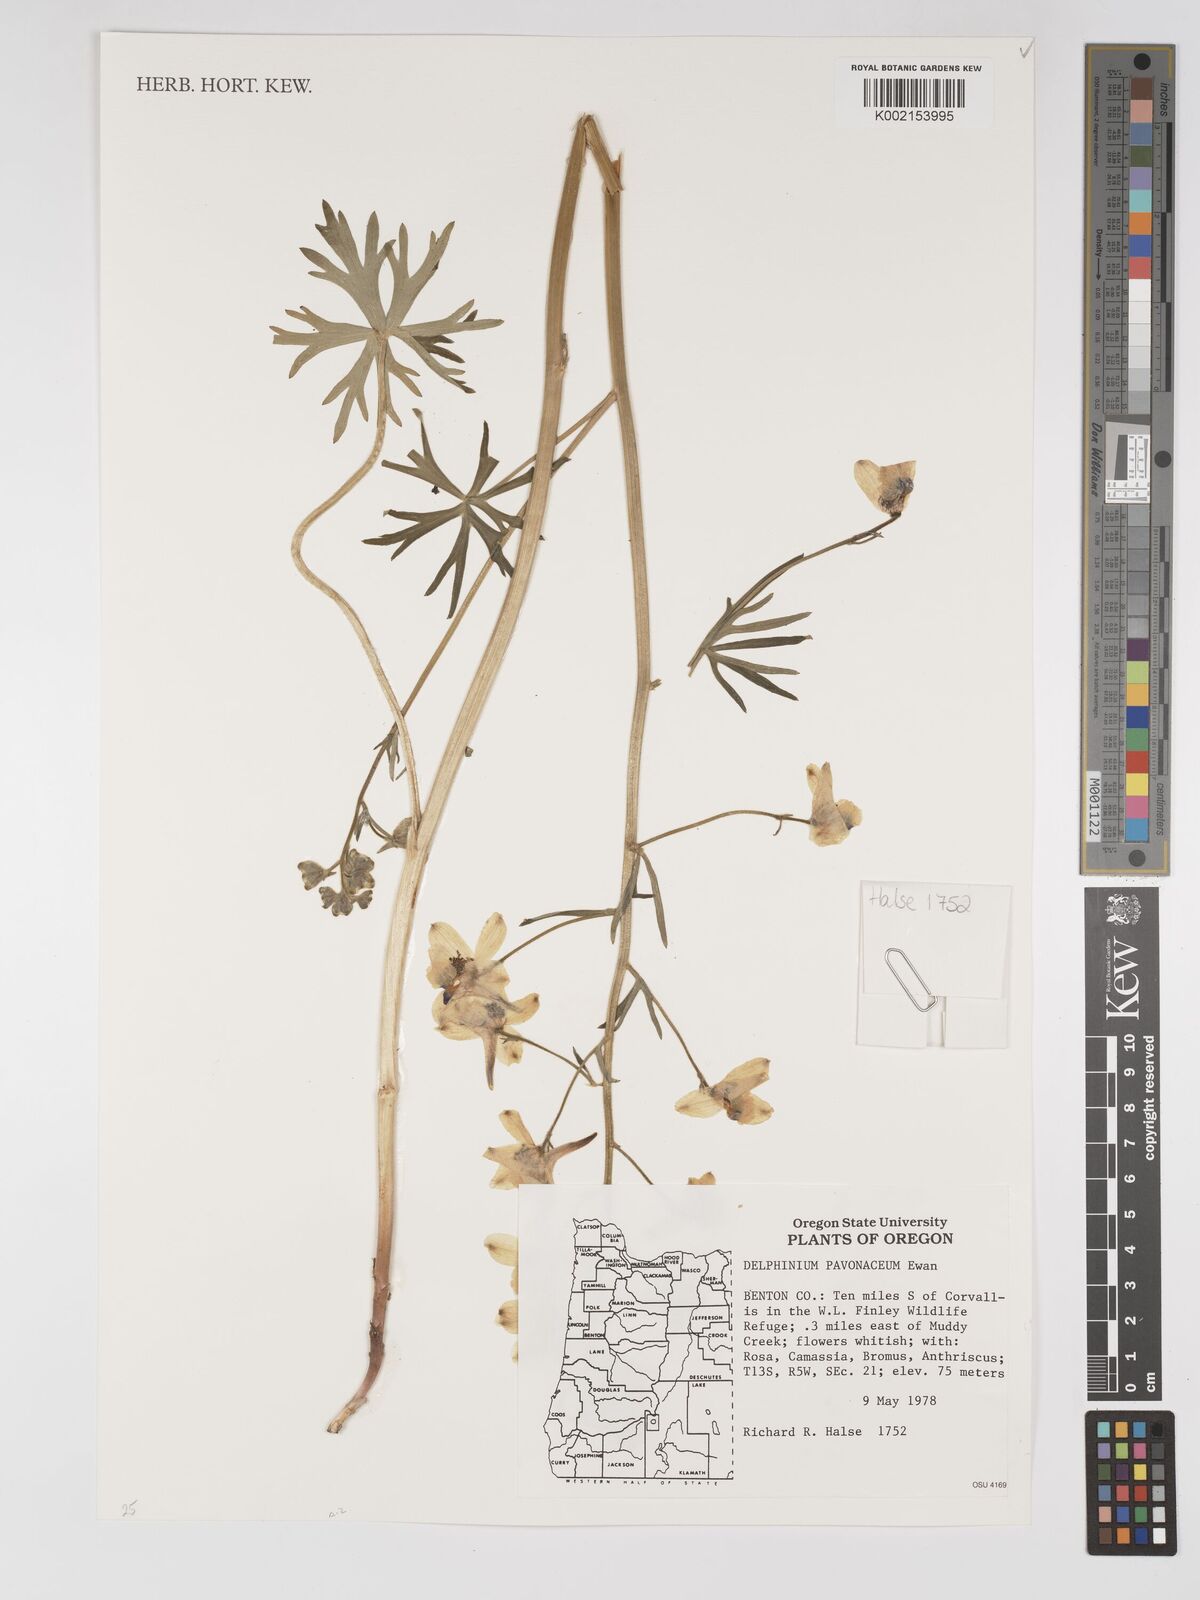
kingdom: Plantae
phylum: Tracheophyta
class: Magnoliopsida
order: Ranunculales
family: Ranunculaceae
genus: Delphinium
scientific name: Delphinium pavonaceum
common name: Peacock larkspur
